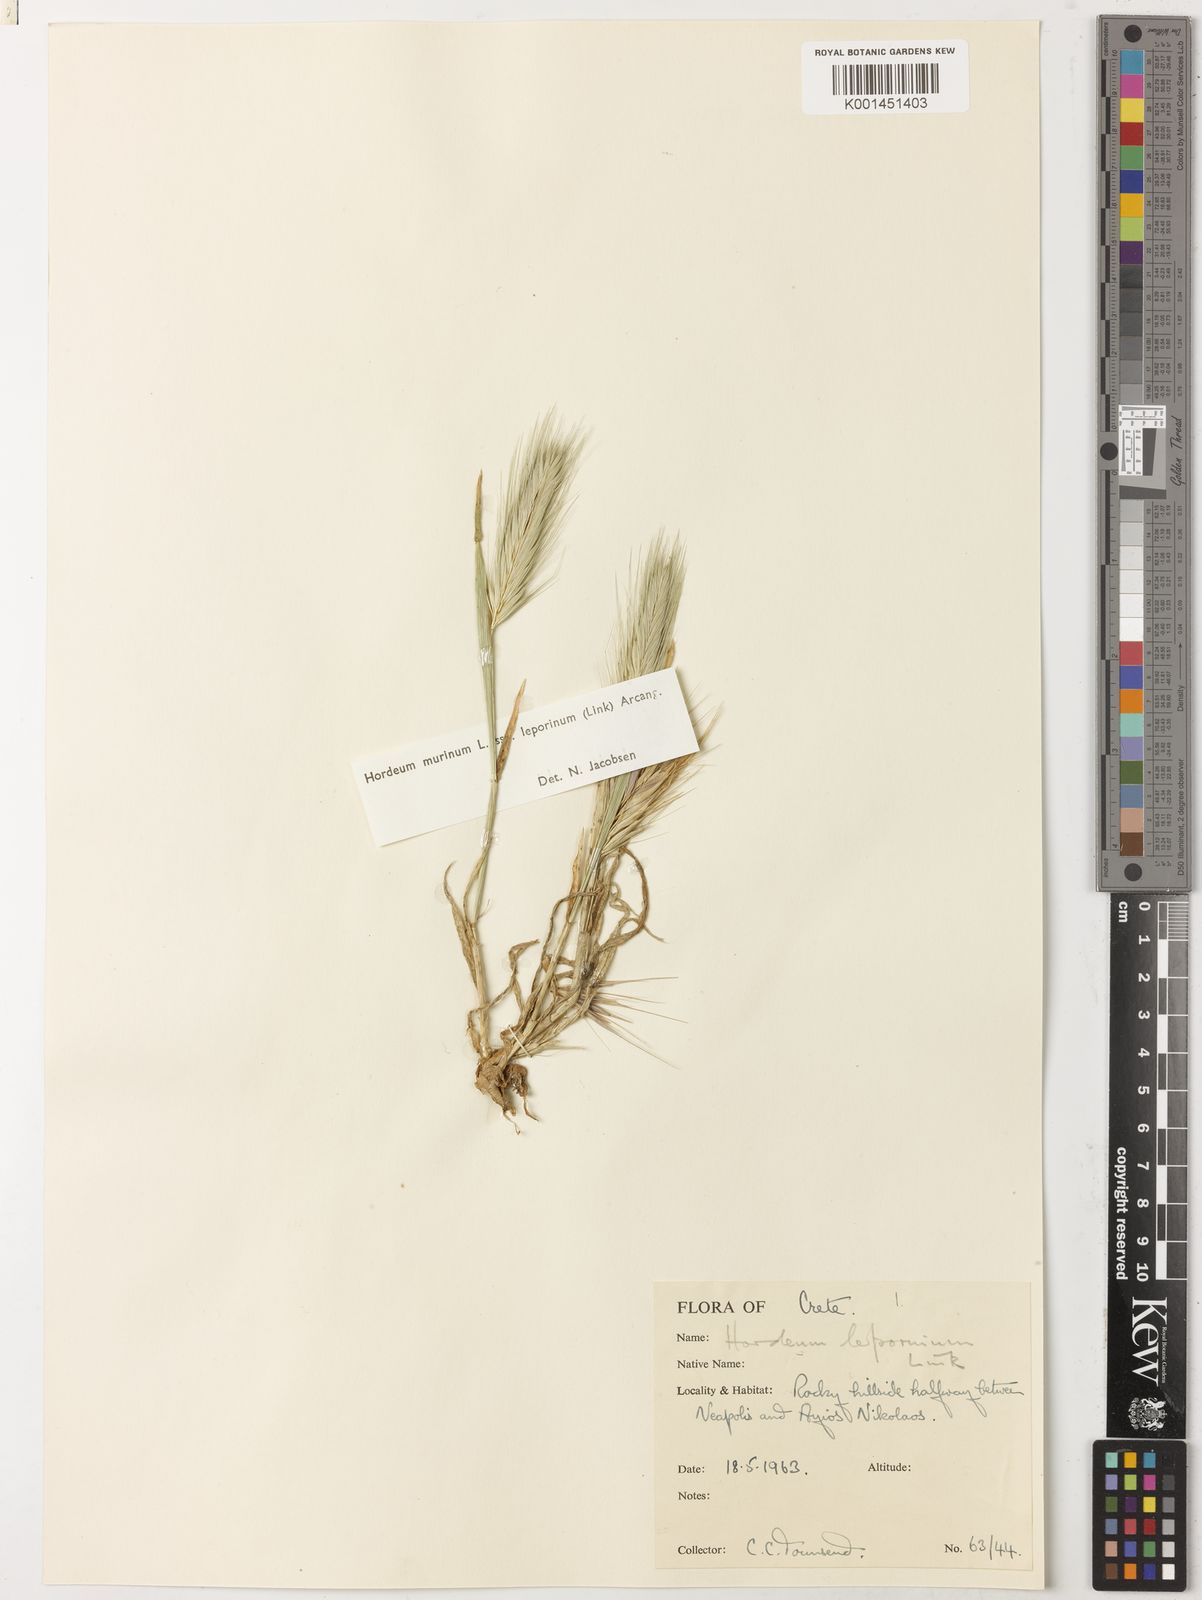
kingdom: Plantae
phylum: Tracheophyta
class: Liliopsida
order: Poales
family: Poaceae
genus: Hordeum
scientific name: Hordeum murinum
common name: Wall barley
